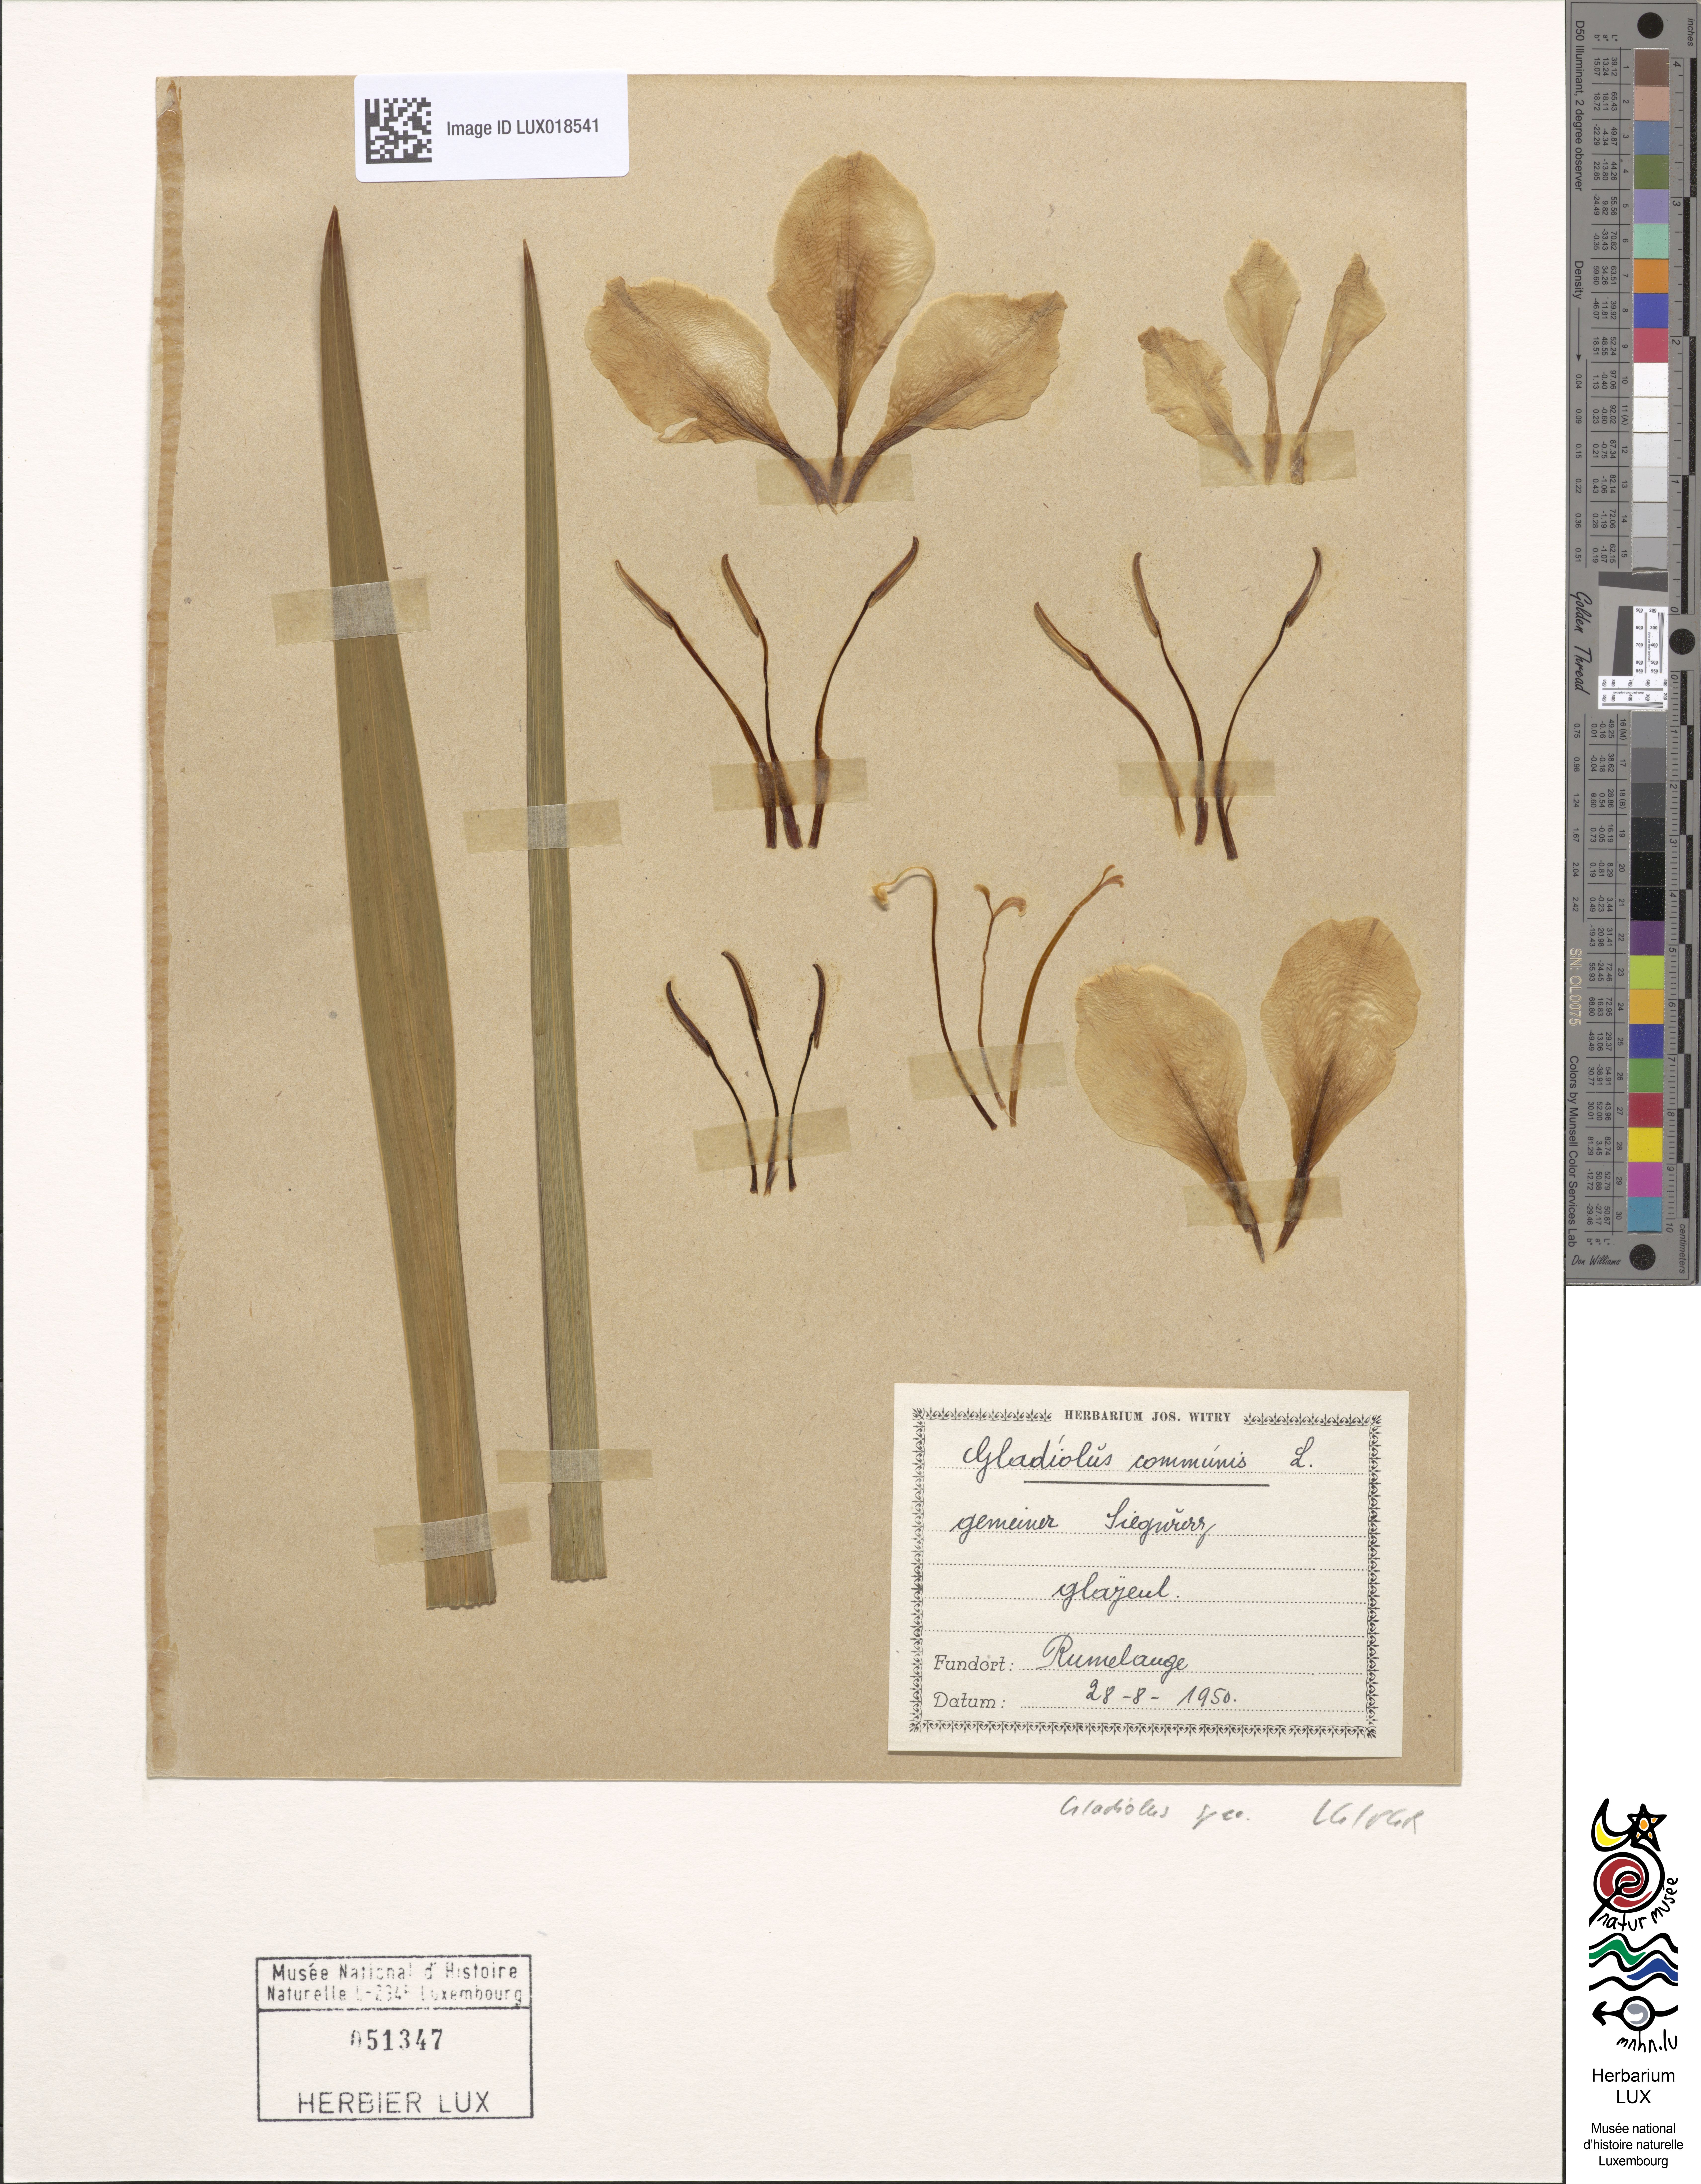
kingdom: Plantae
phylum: Tracheophyta
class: Liliopsida
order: Asparagales
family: Iridaceae
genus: Gladiolus
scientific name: Gladiolus
